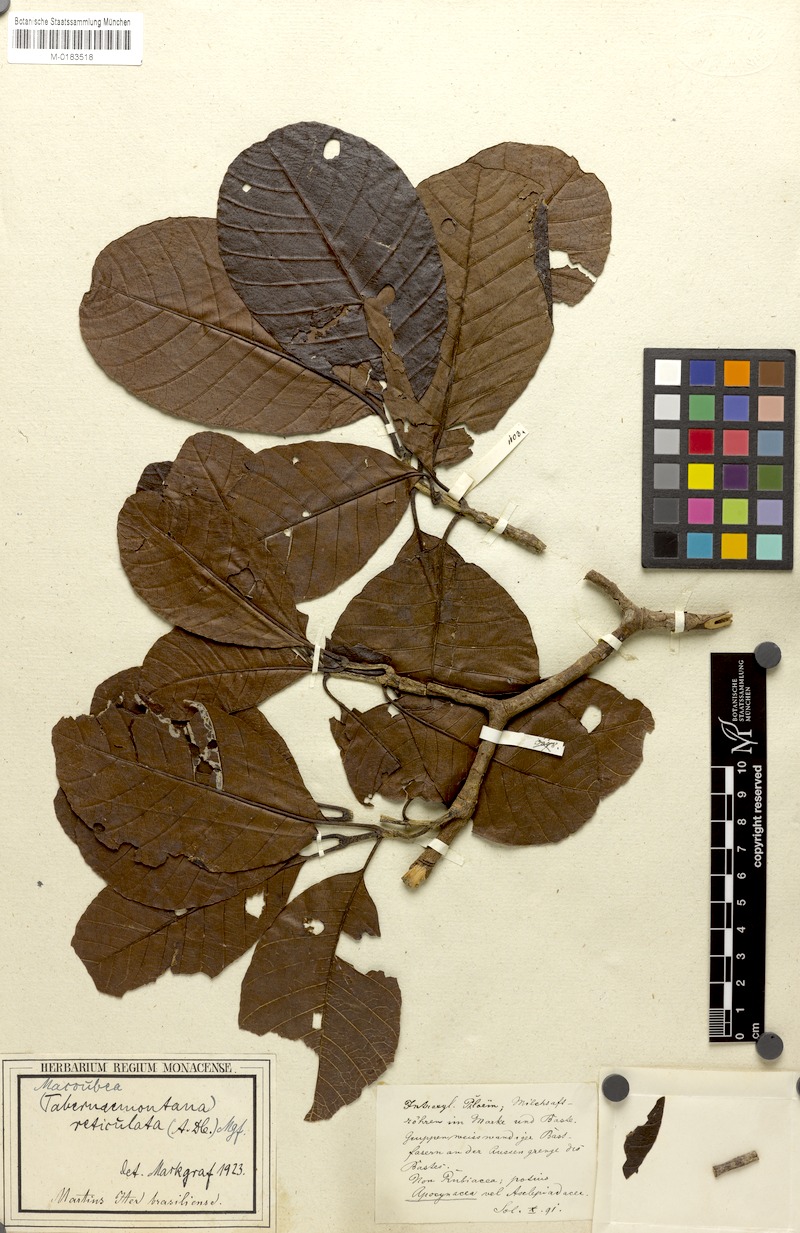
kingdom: Plantae
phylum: Tracheophyta
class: Magnoliopsida
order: Gentianales
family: Apocynaceae
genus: Macoubea
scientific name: Macoubea guianensis
